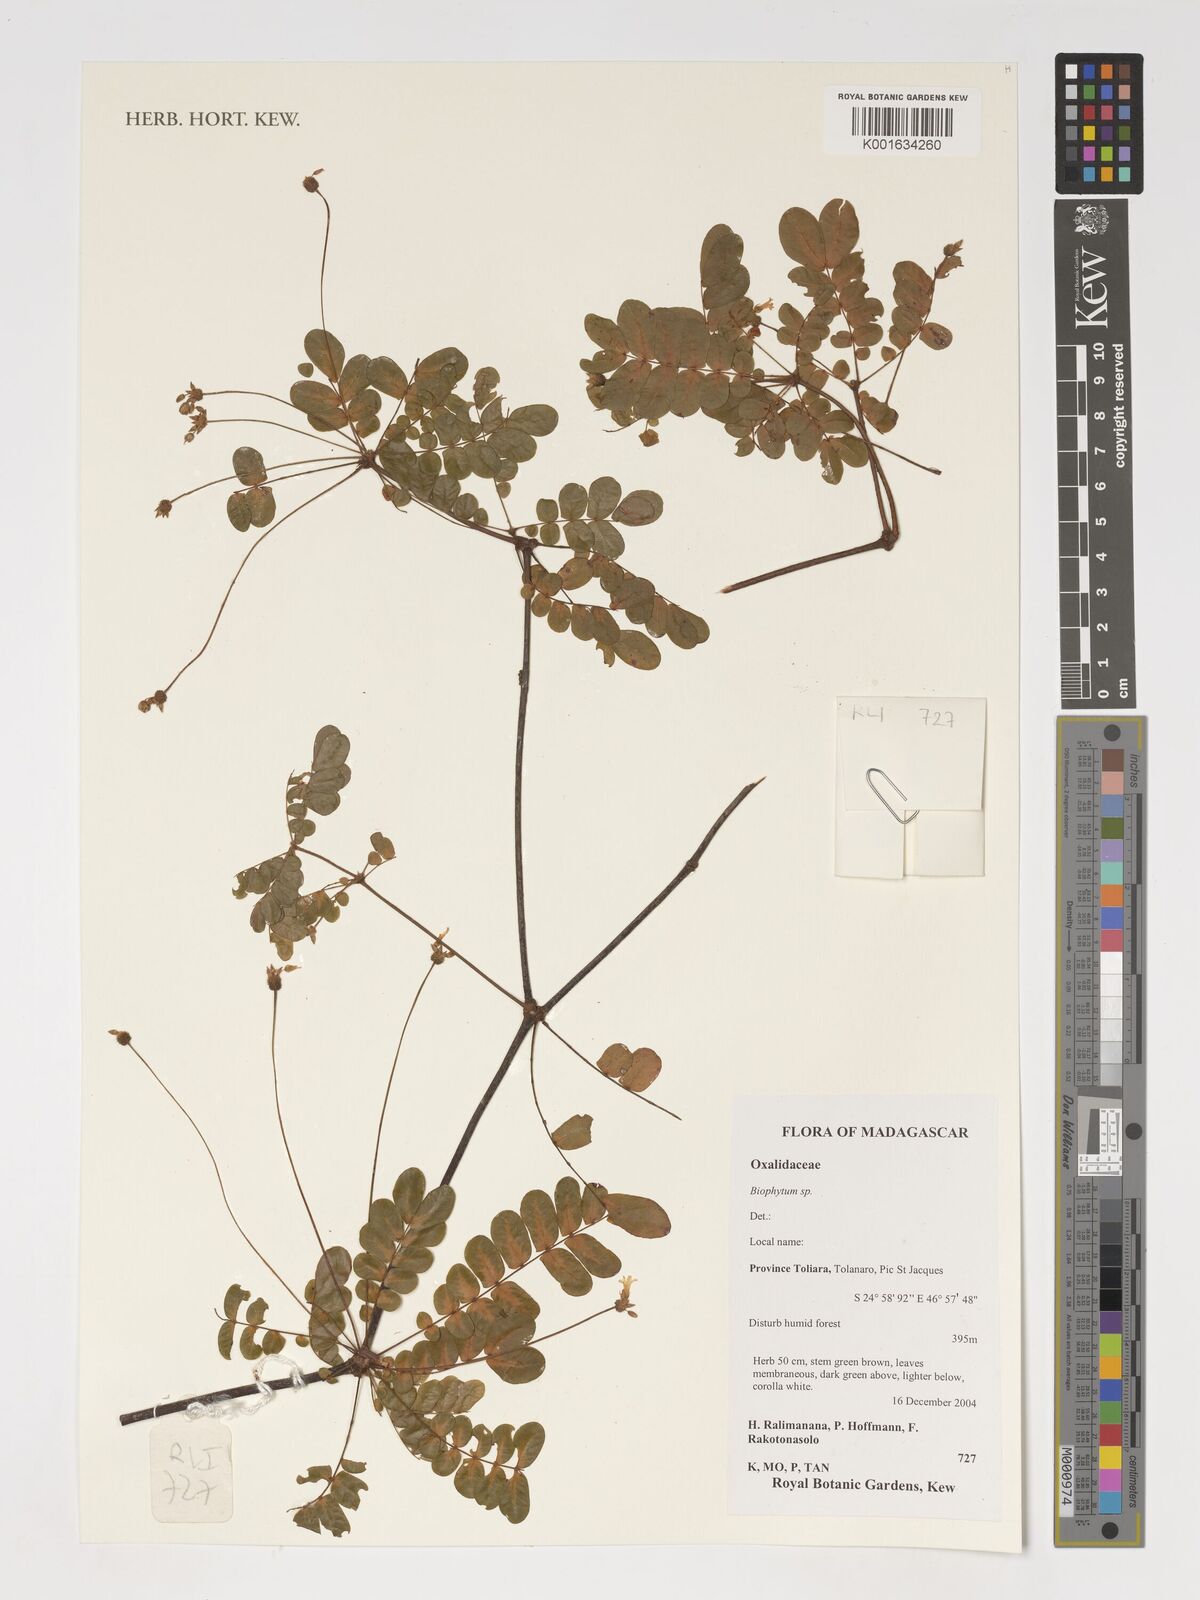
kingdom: Plantae
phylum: Tracheophyta
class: Magnoliopsida
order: Oxalidales
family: Oxalidaceae
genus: Biophytum
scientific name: Biophytum
